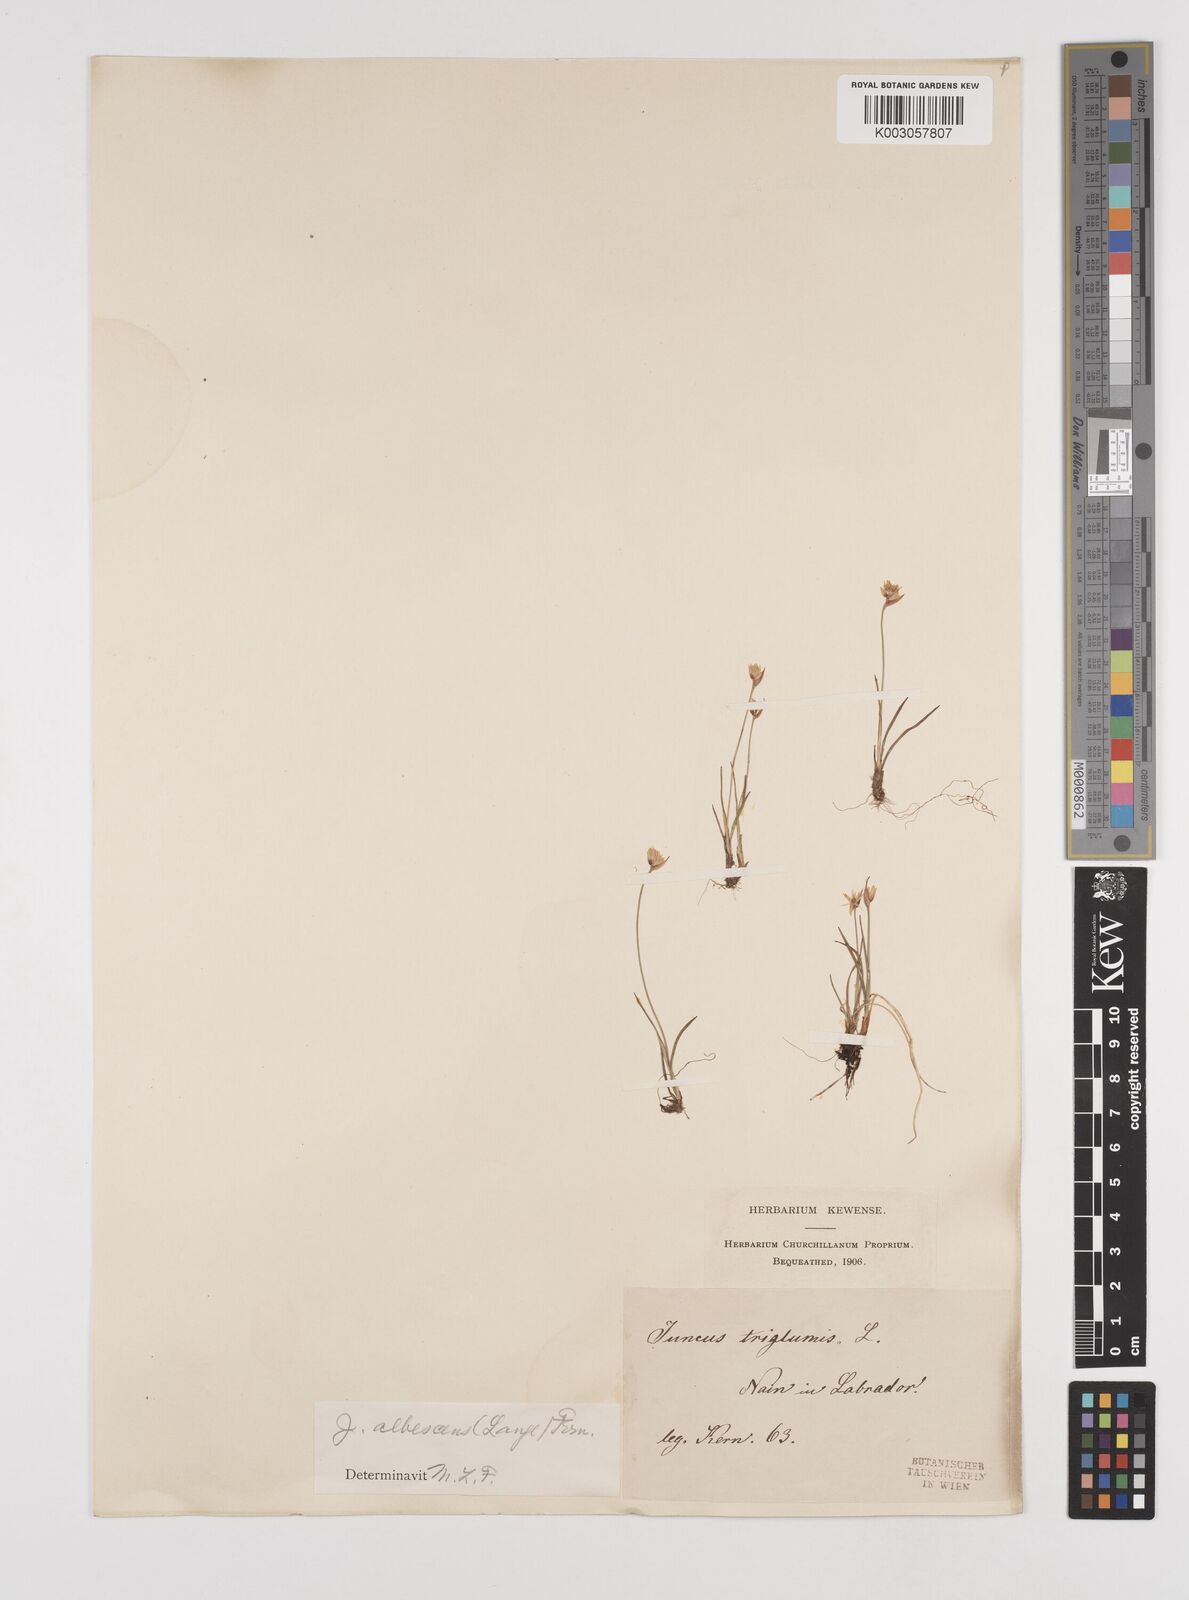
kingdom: Plantae
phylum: Tracheophyta
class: Liliopsida
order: Poales
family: Juncaceae
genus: Juncus
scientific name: Juncus triglumis
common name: Three-flowered rush
